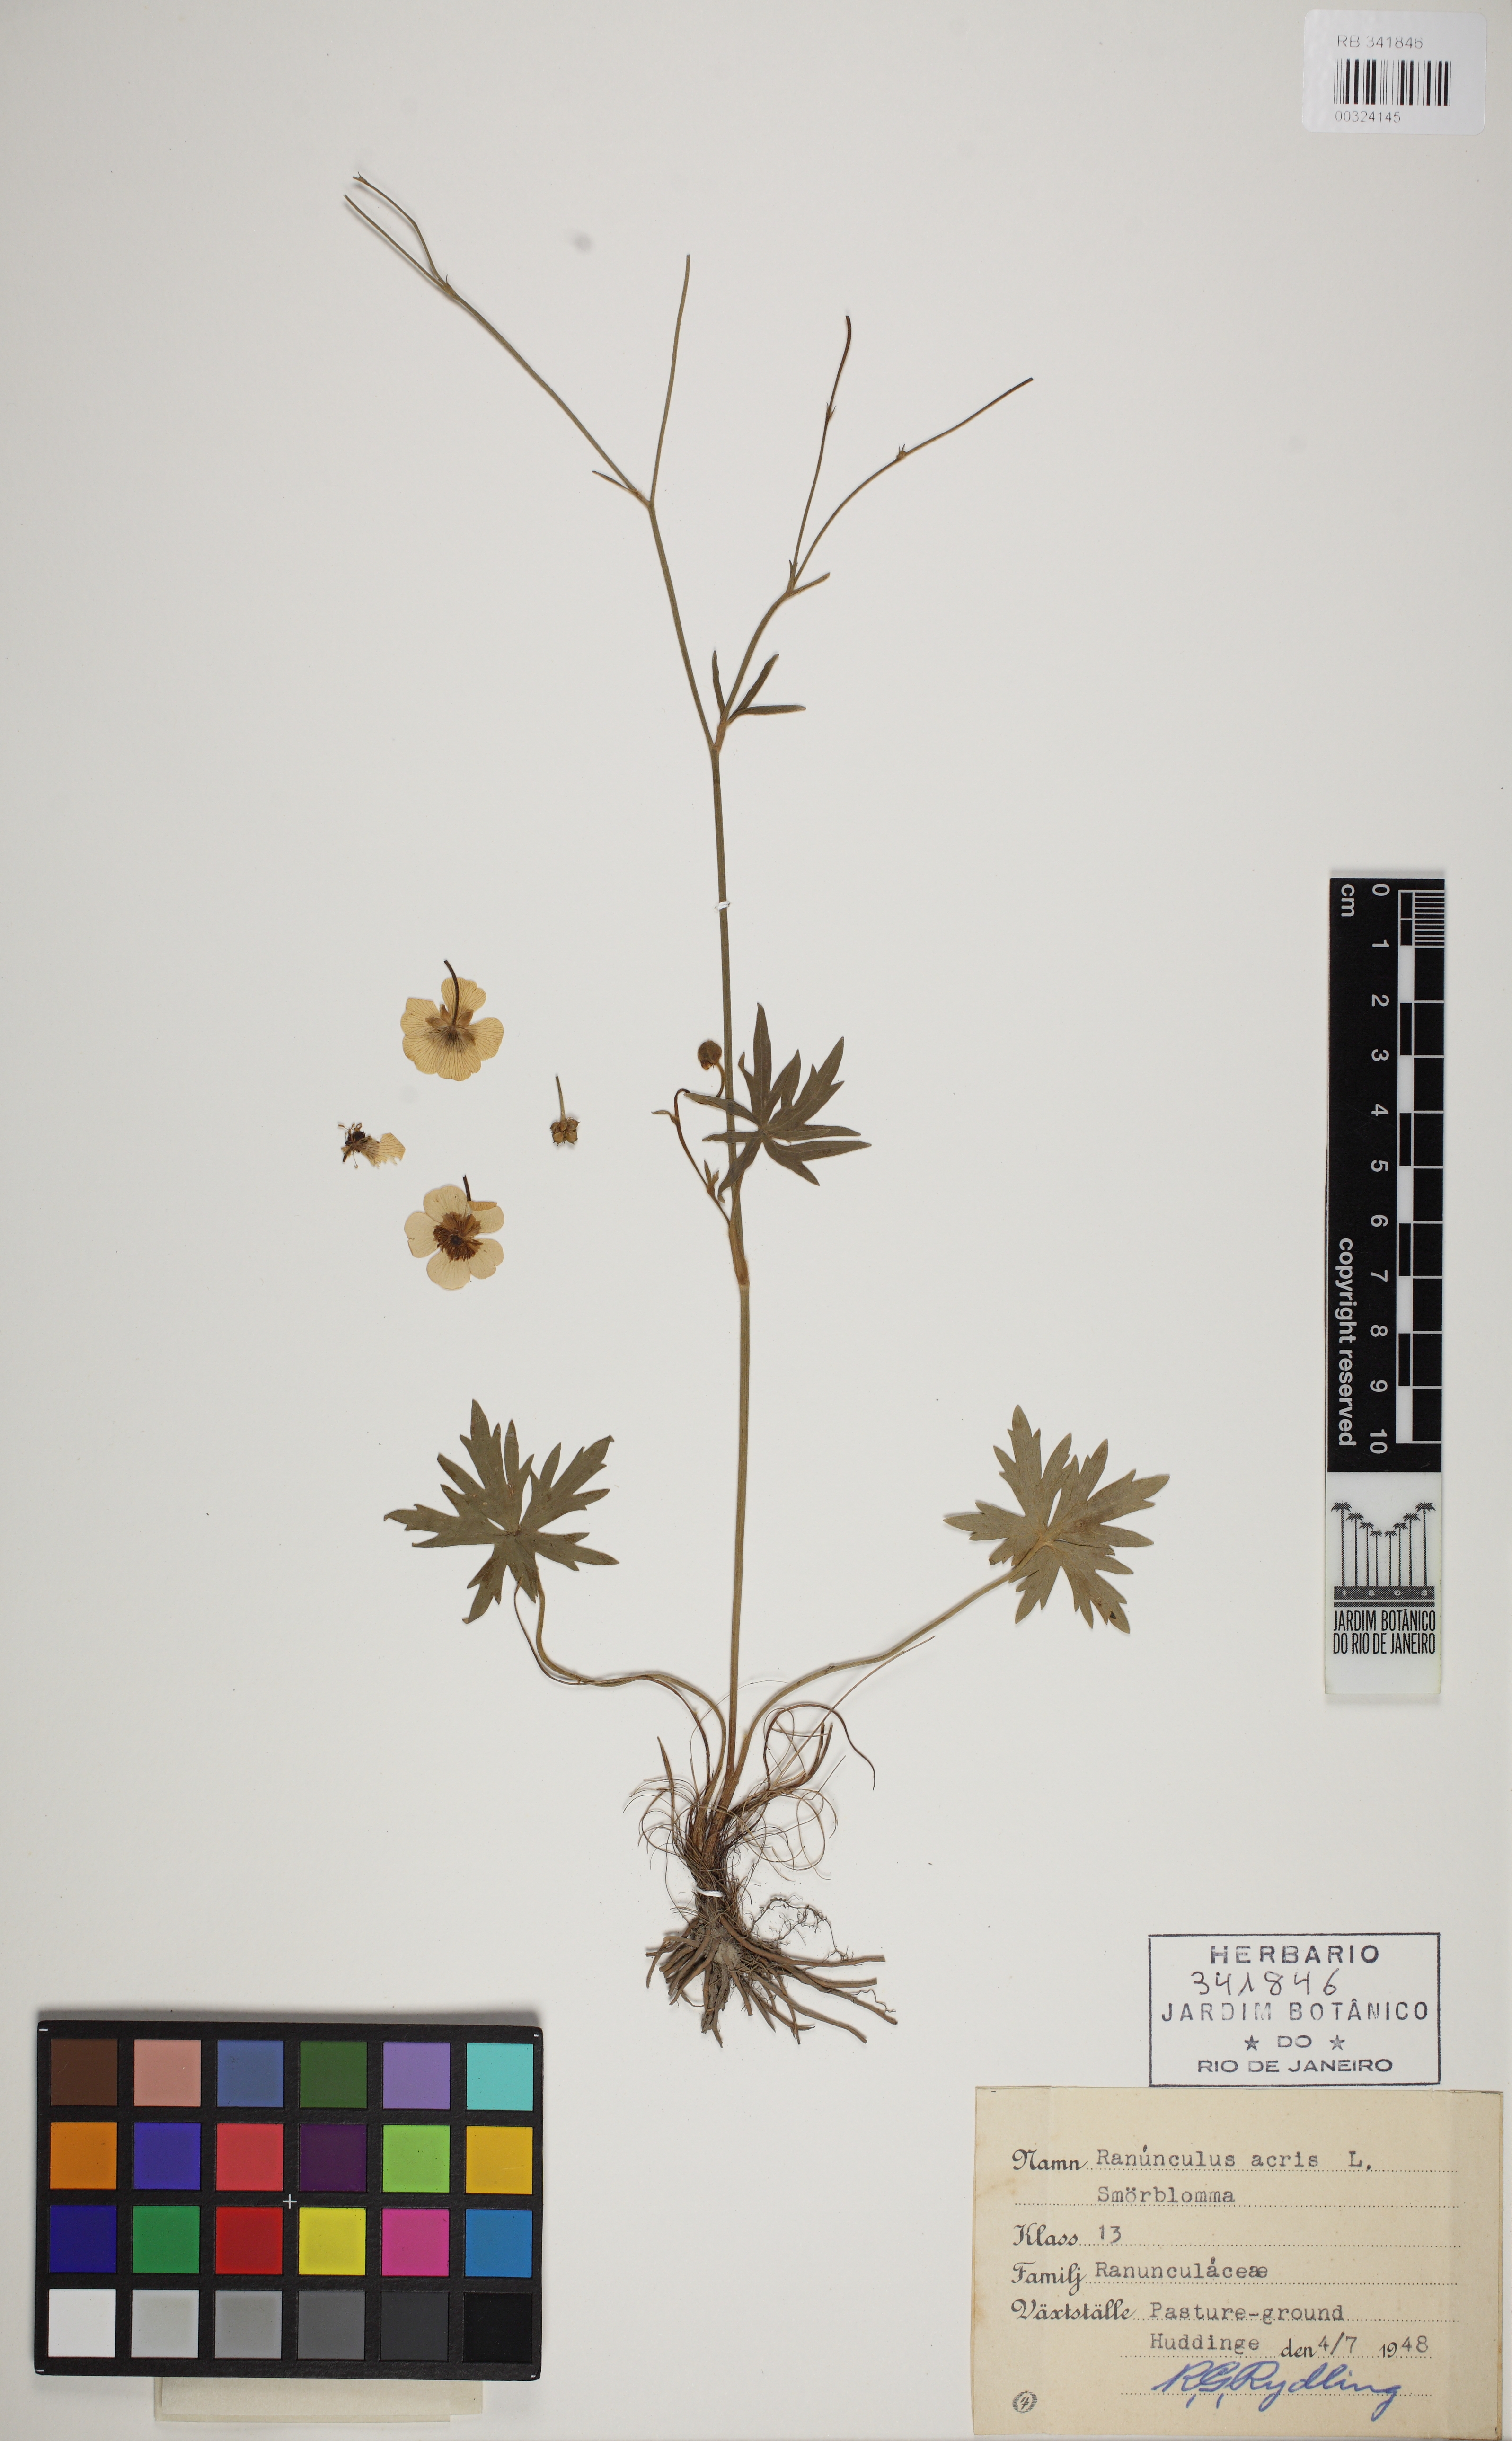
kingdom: Plantae
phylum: Tracheophyta
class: Magnoliopsida
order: Ranunculales
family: Ranunculaceae
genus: Ranunculus
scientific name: Ranunculus acris
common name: Meadow buttercup
